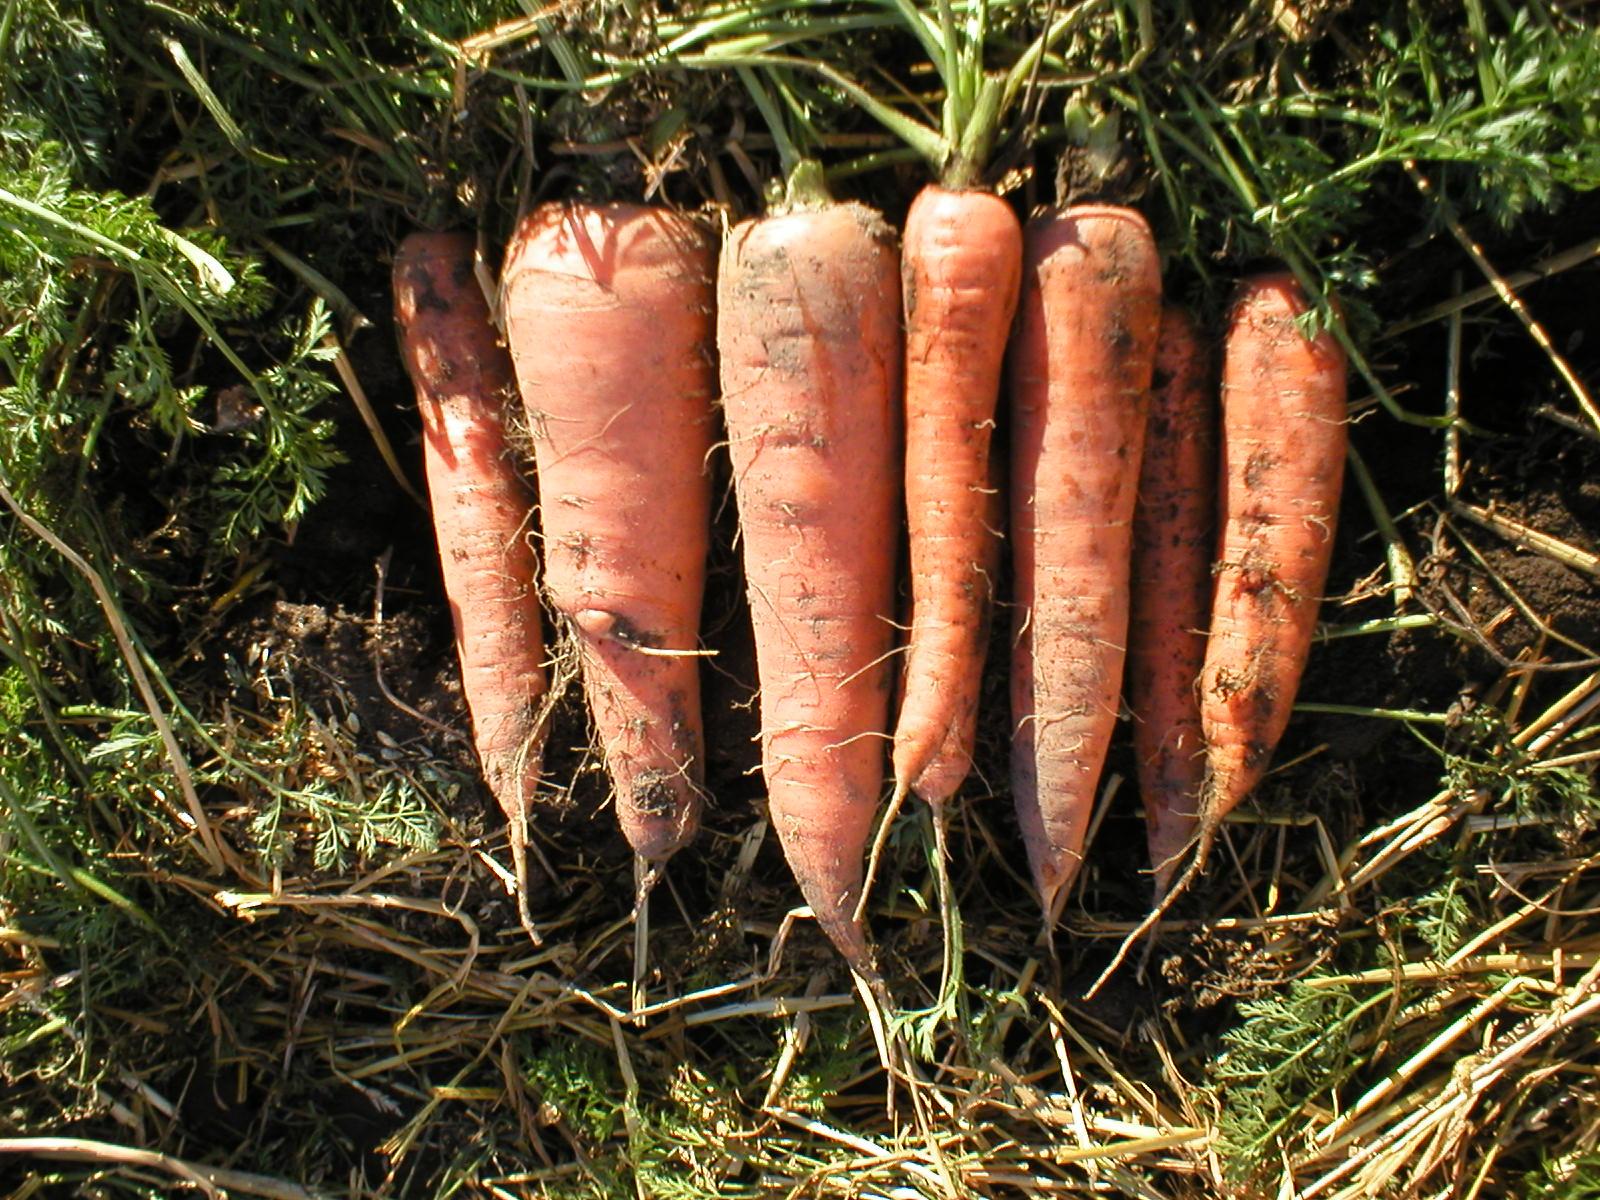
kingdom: Plantae
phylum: Tracheophyta
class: Magnoliopsida
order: Apiales
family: Apiaceae
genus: Daucus
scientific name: Daucus carota
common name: Wild carrot
